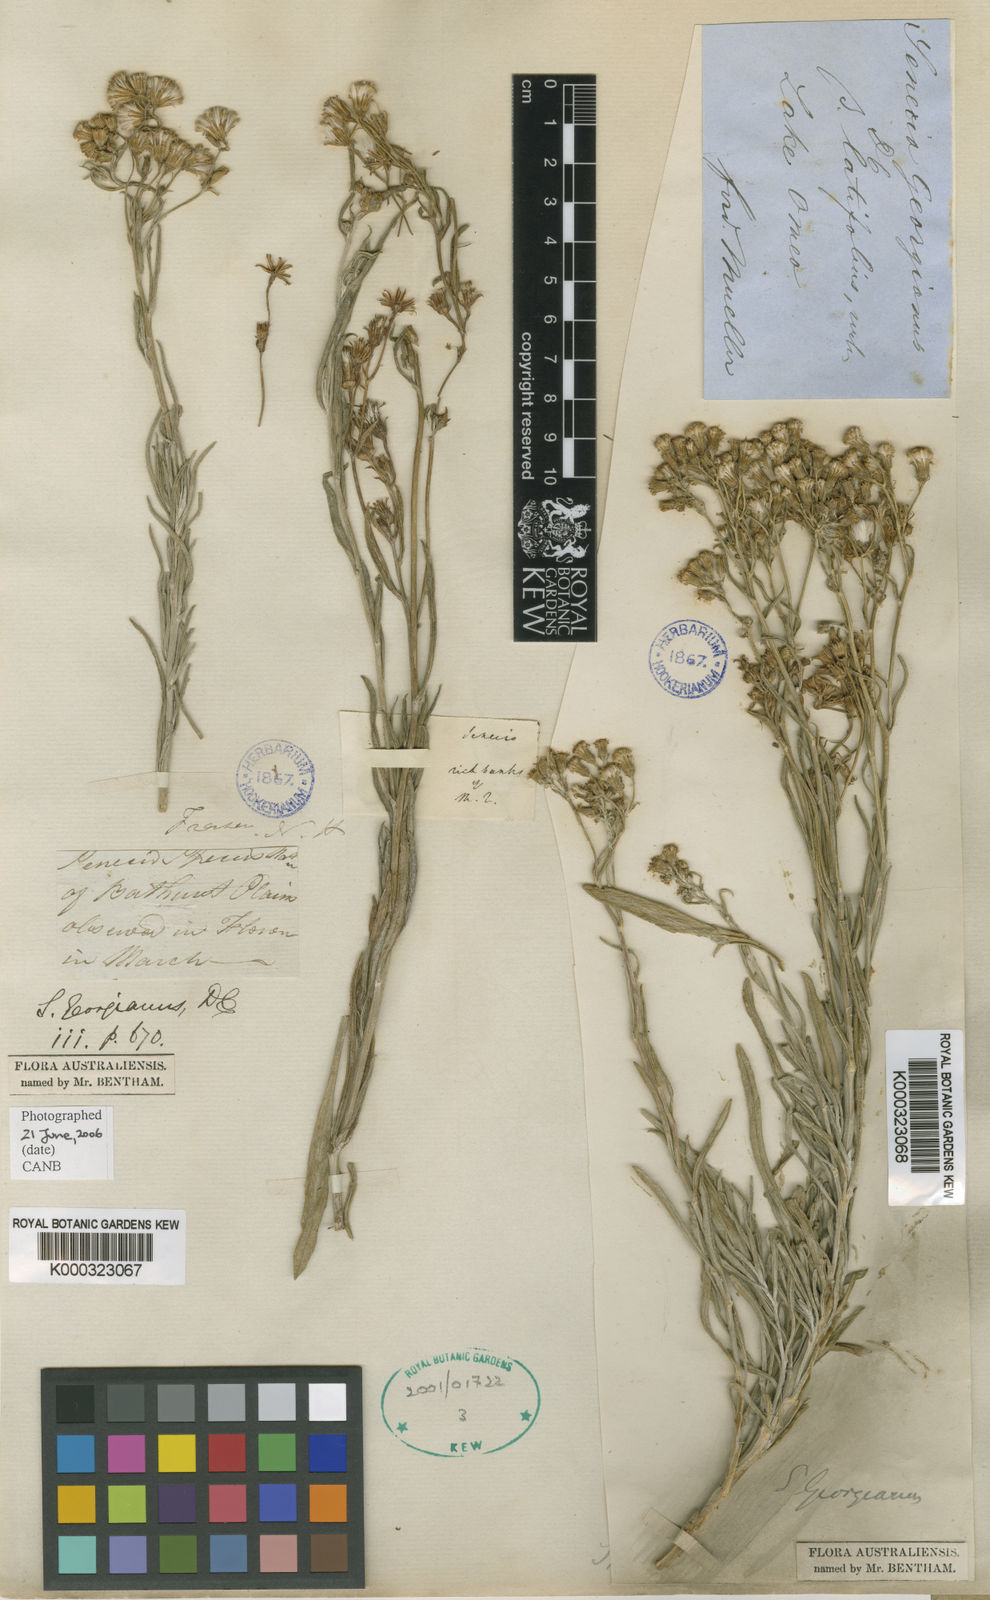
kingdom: Plantae
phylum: Tracheophyta
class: Magnoliopsida
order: Asterales
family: Asteraceae
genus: Senecio
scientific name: Senecio georgianus
